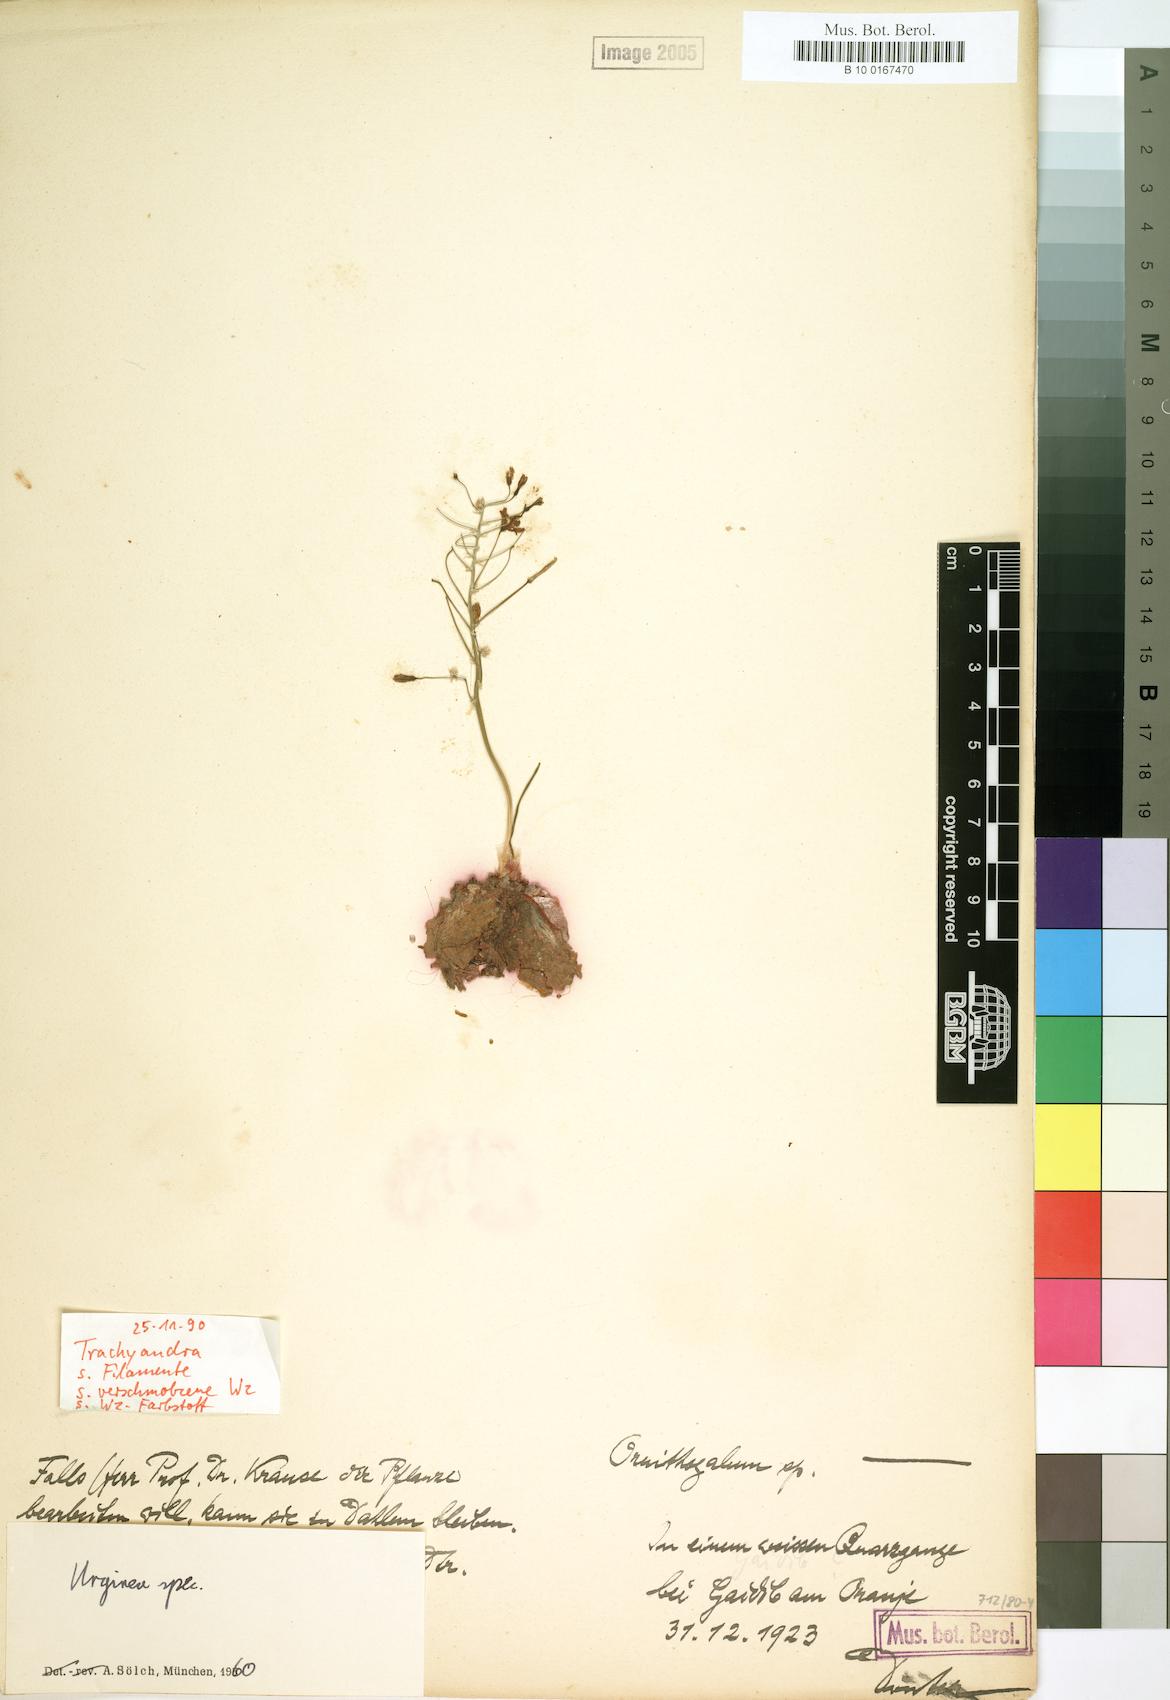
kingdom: Plantae
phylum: Tracheophyta
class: Liliopsida
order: Liliales
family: Liliaceae
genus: Urginia
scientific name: Urginia
